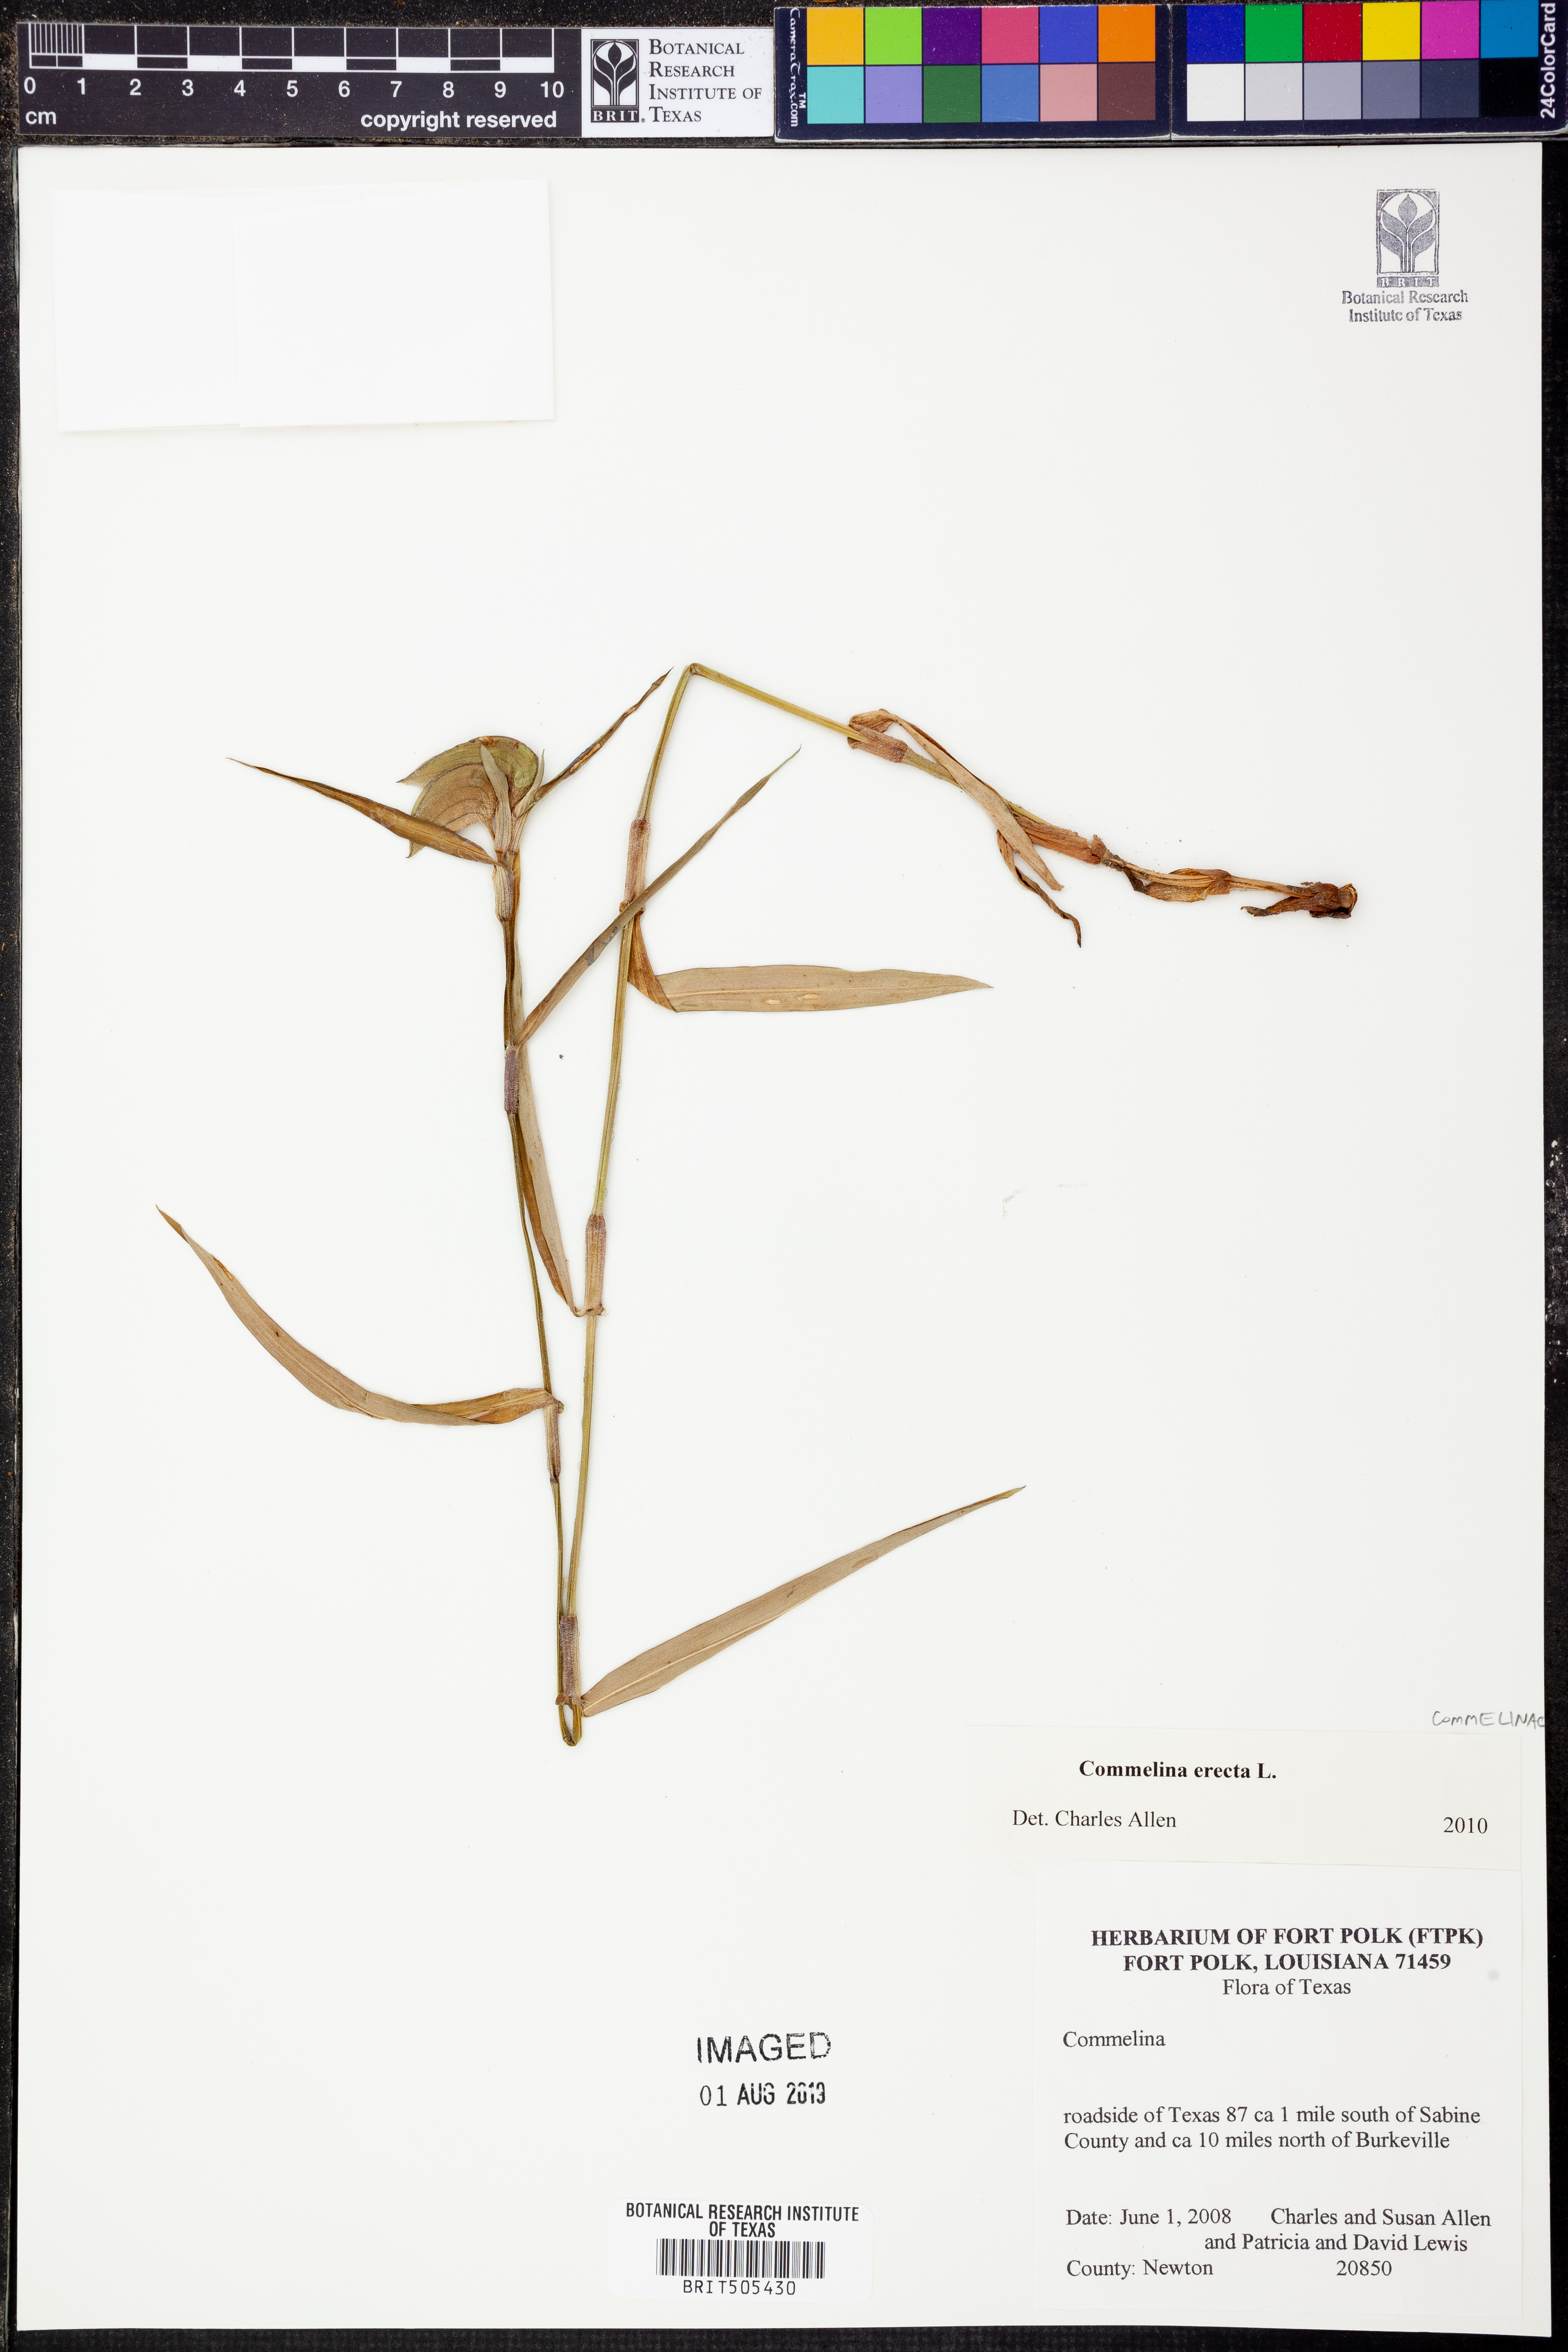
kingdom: Plantae
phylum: Tracheophyta
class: Liliopsida
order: Commelinales
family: Commelinaceae
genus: Commelina
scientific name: Commelina erecta
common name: Blousel blommetjie
